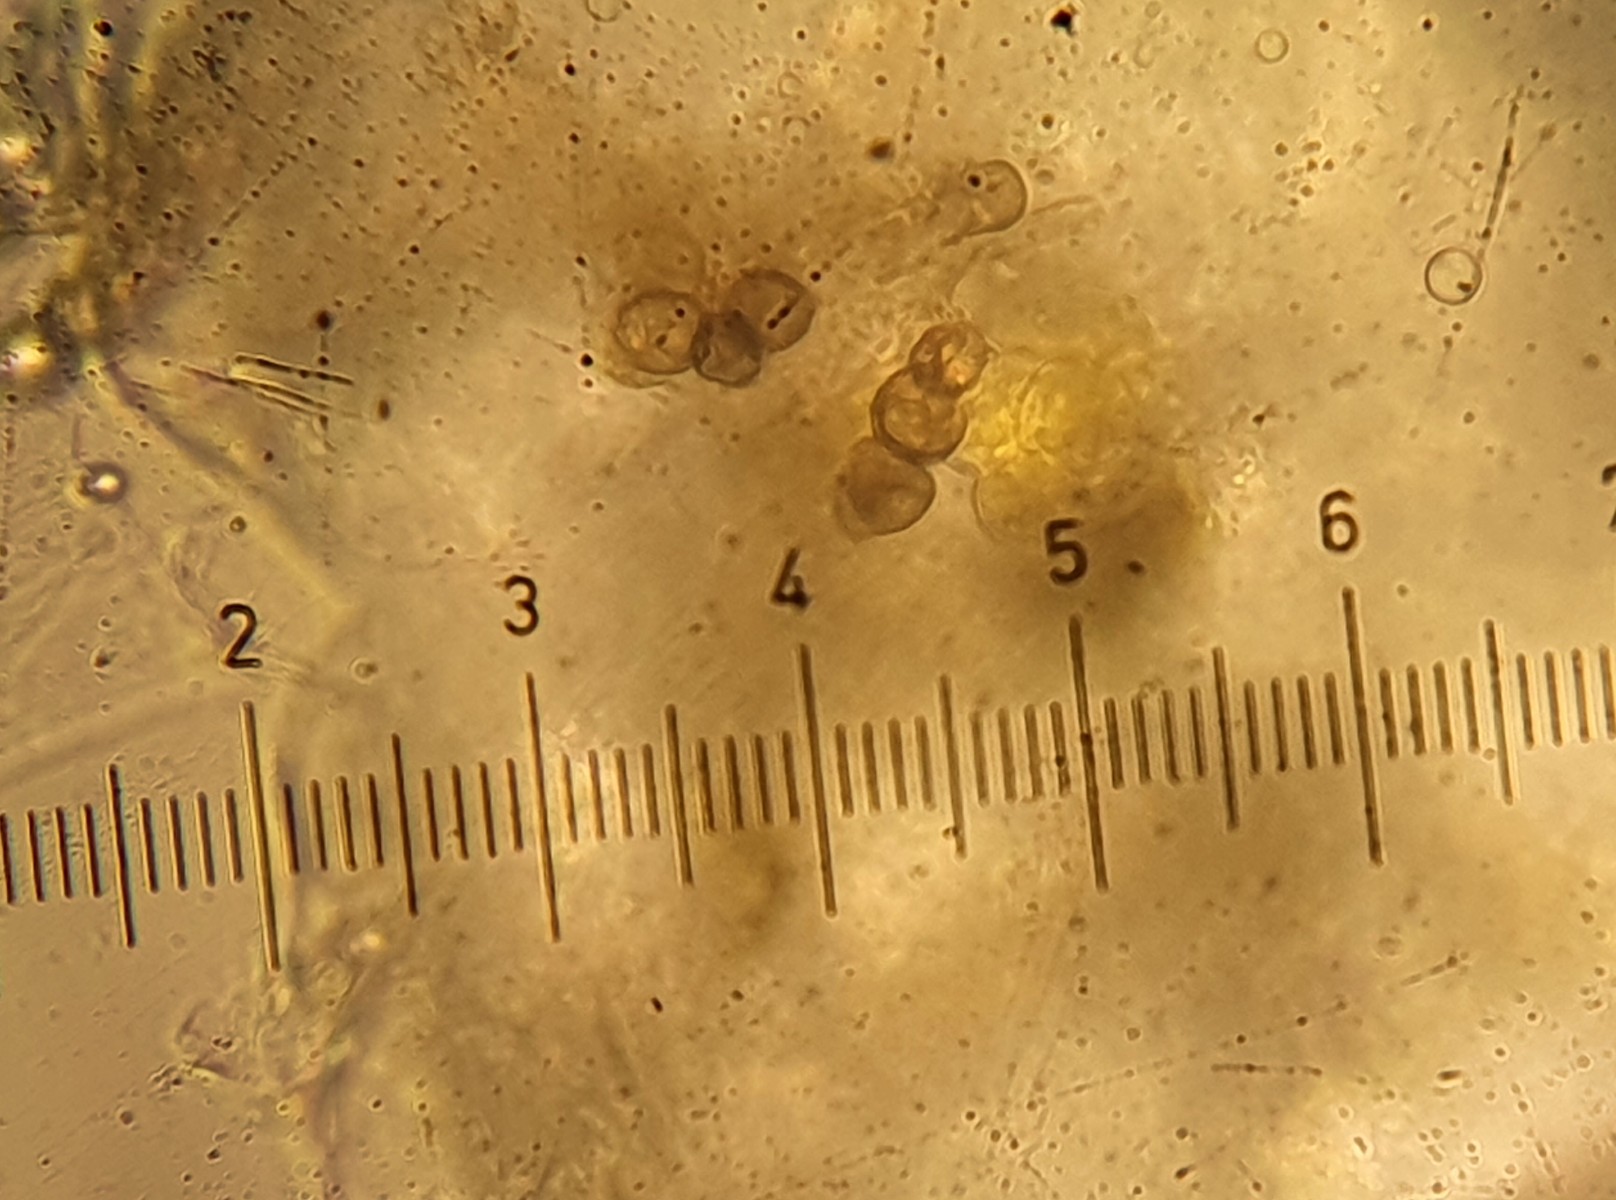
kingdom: Fungi
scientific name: Fungi
